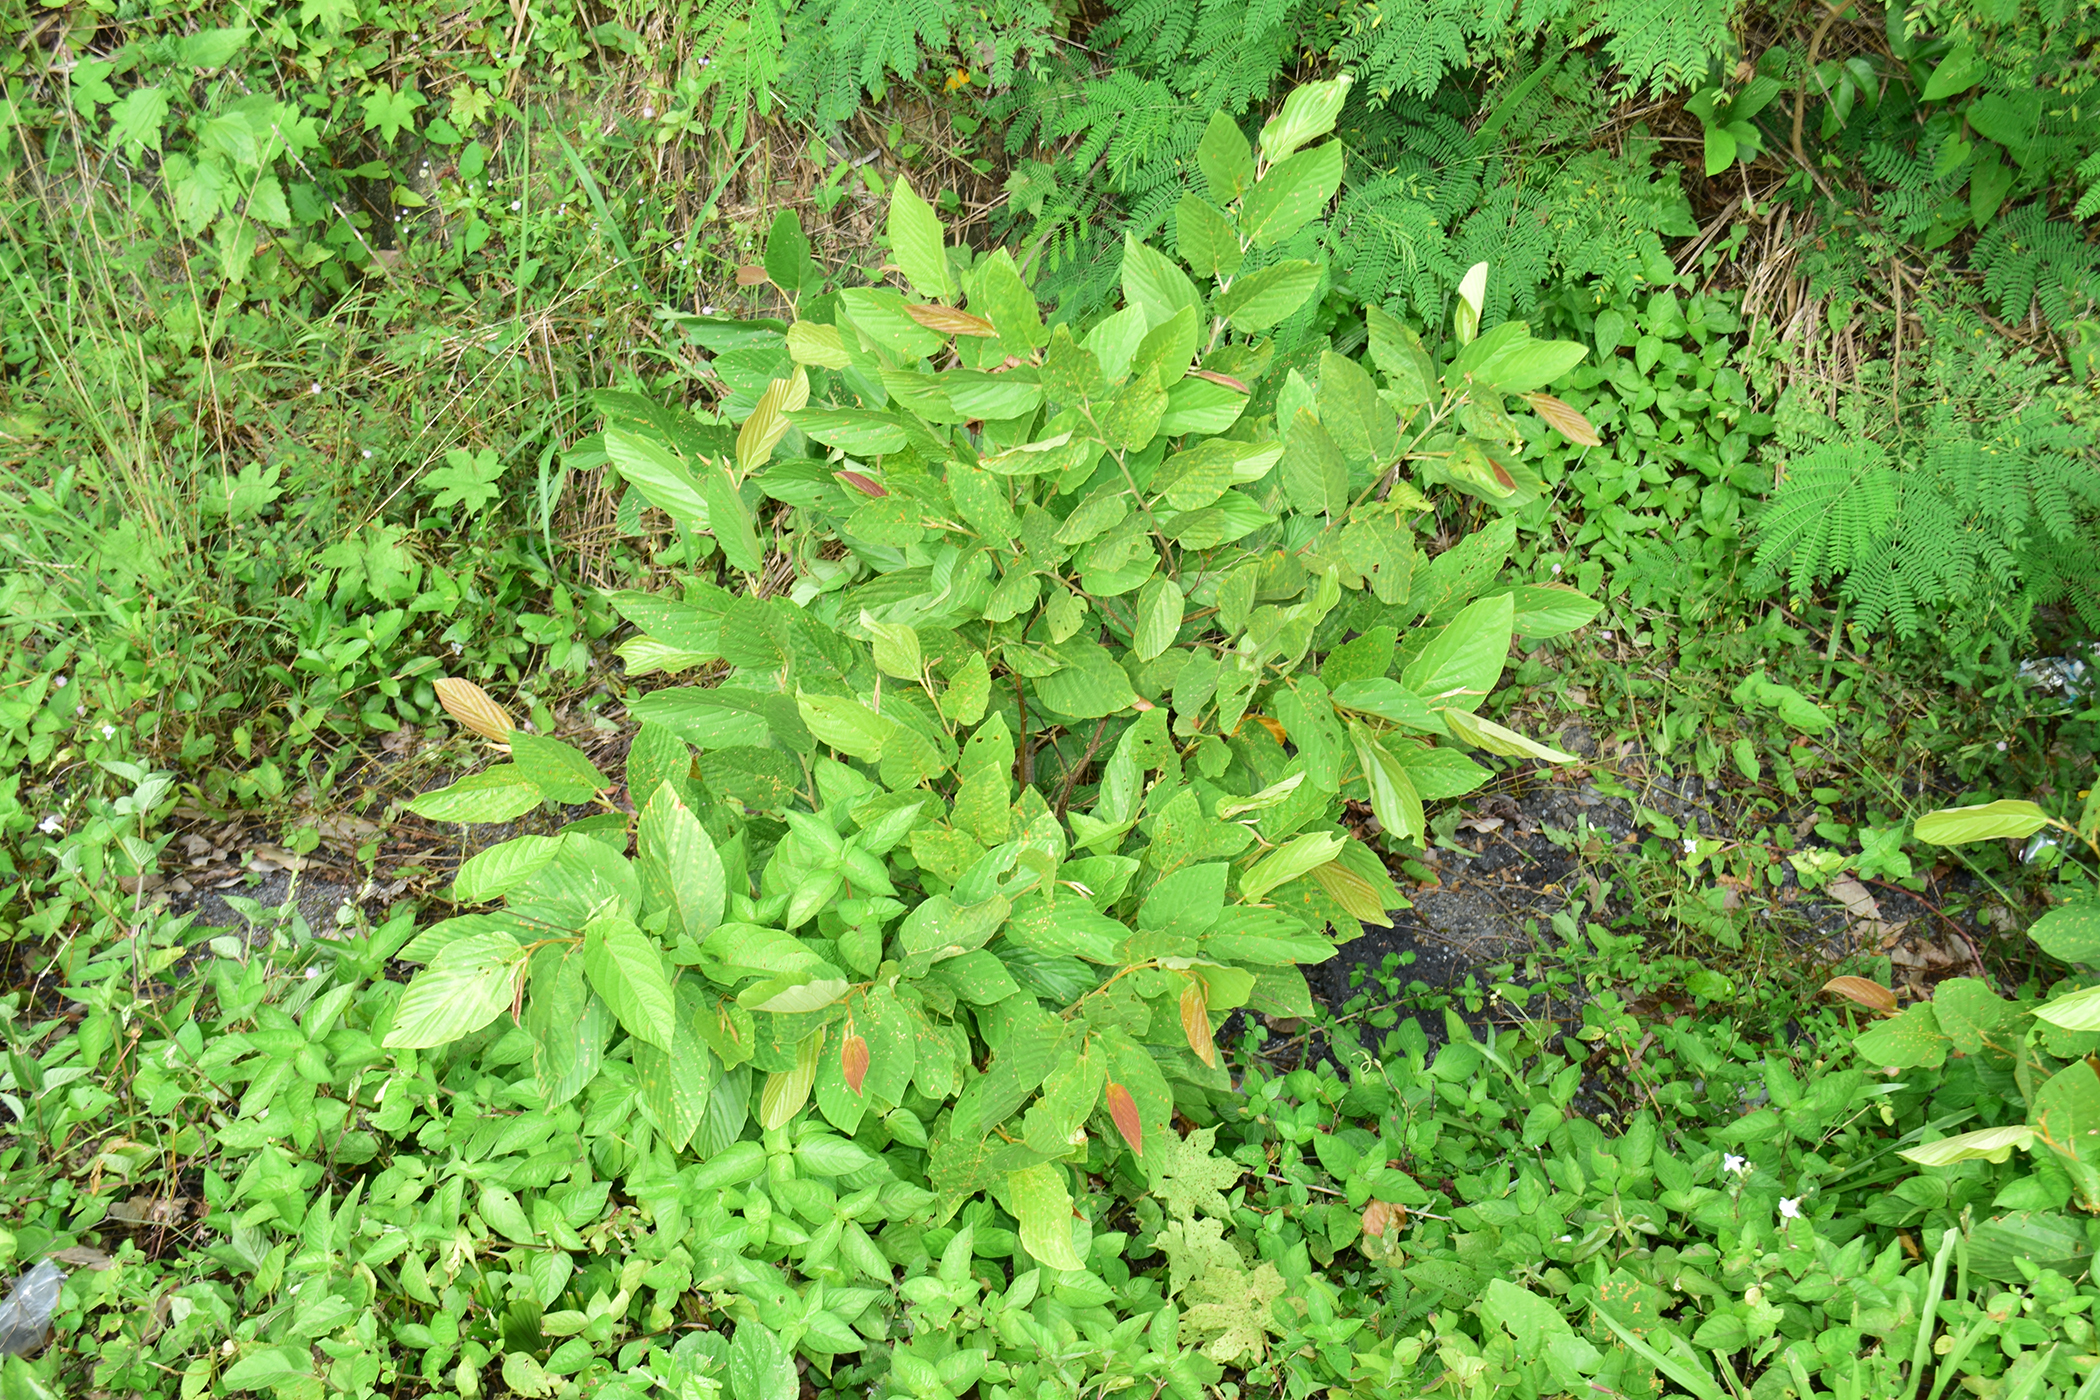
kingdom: Plantae
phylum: Tracheophyta
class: Magnoliopsida
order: Fabales
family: Fabaceae
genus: Flemingia
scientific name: Flemingia strobilifera
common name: Wild hops
